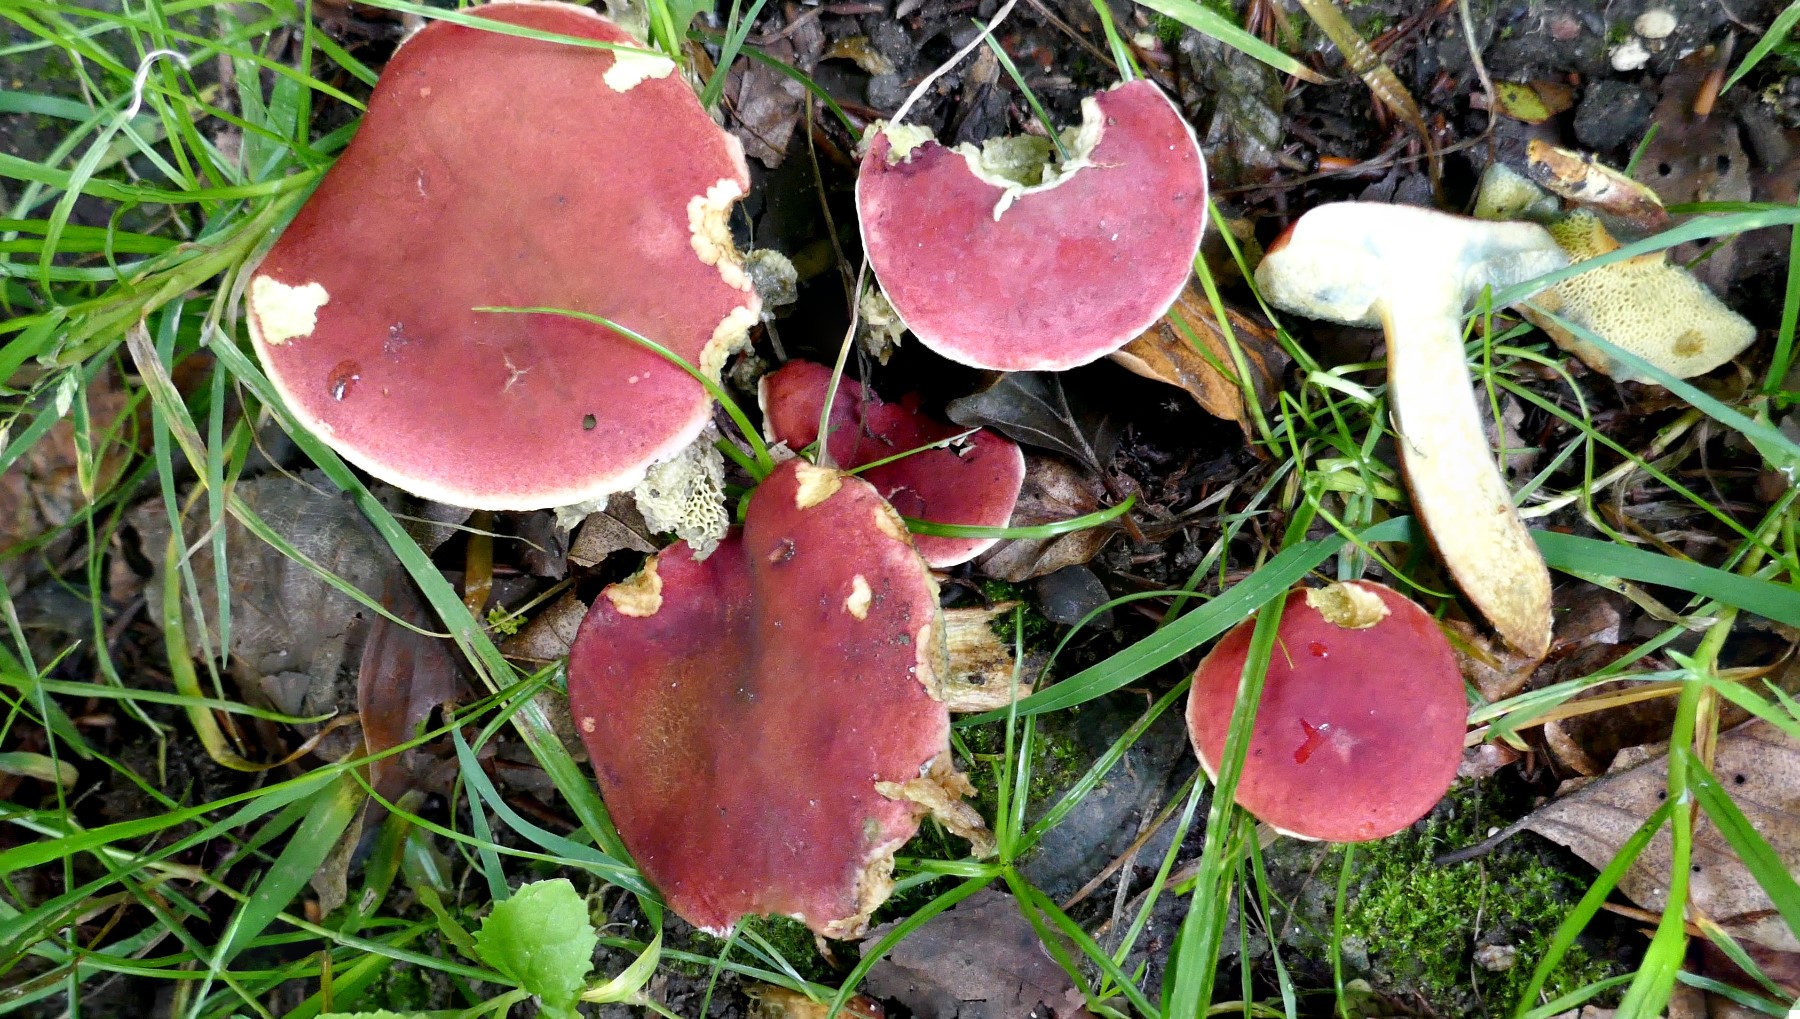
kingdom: Fungi
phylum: Basidiomycota
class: Agaricomycetes
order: Boletales
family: Boletaceae
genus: Hortiboletus
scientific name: Hortiboletus rubellus
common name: blodrød rørhat
